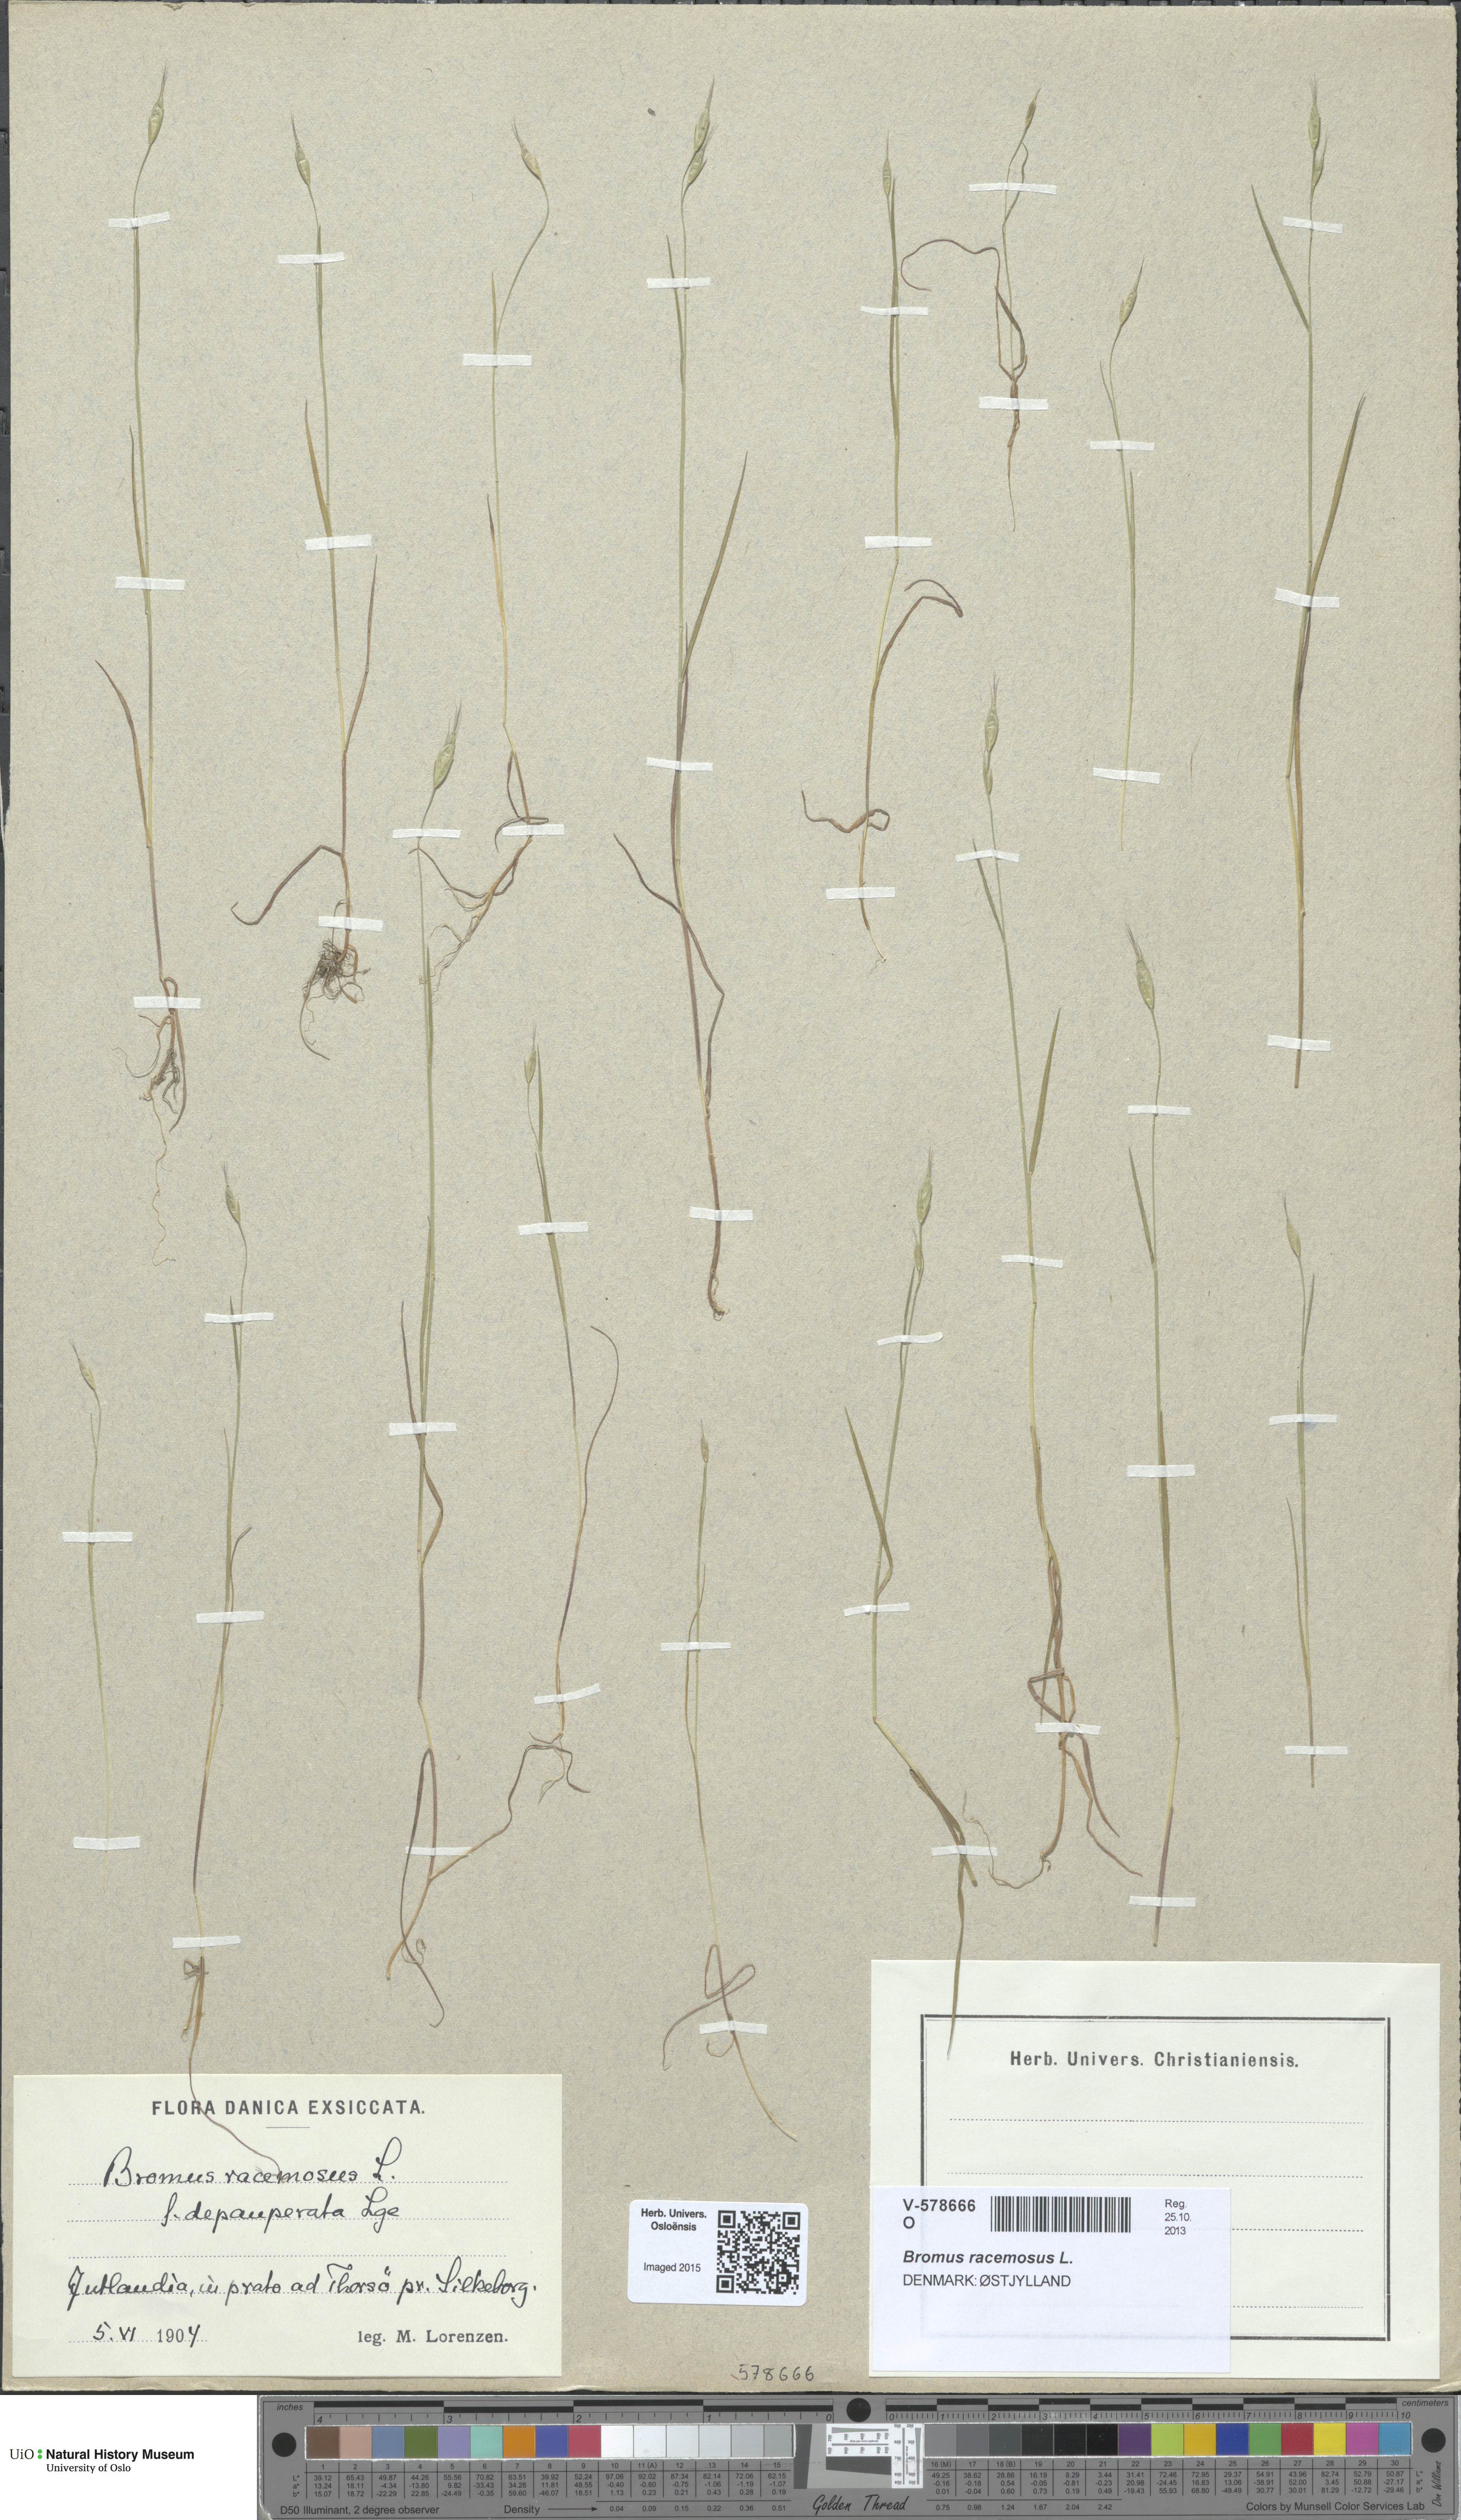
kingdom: Plantae
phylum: Tracheophyta
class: Liliopsida
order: Poales
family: Poaceae
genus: Bromus
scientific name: Bromus racemosus
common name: Bald brome
